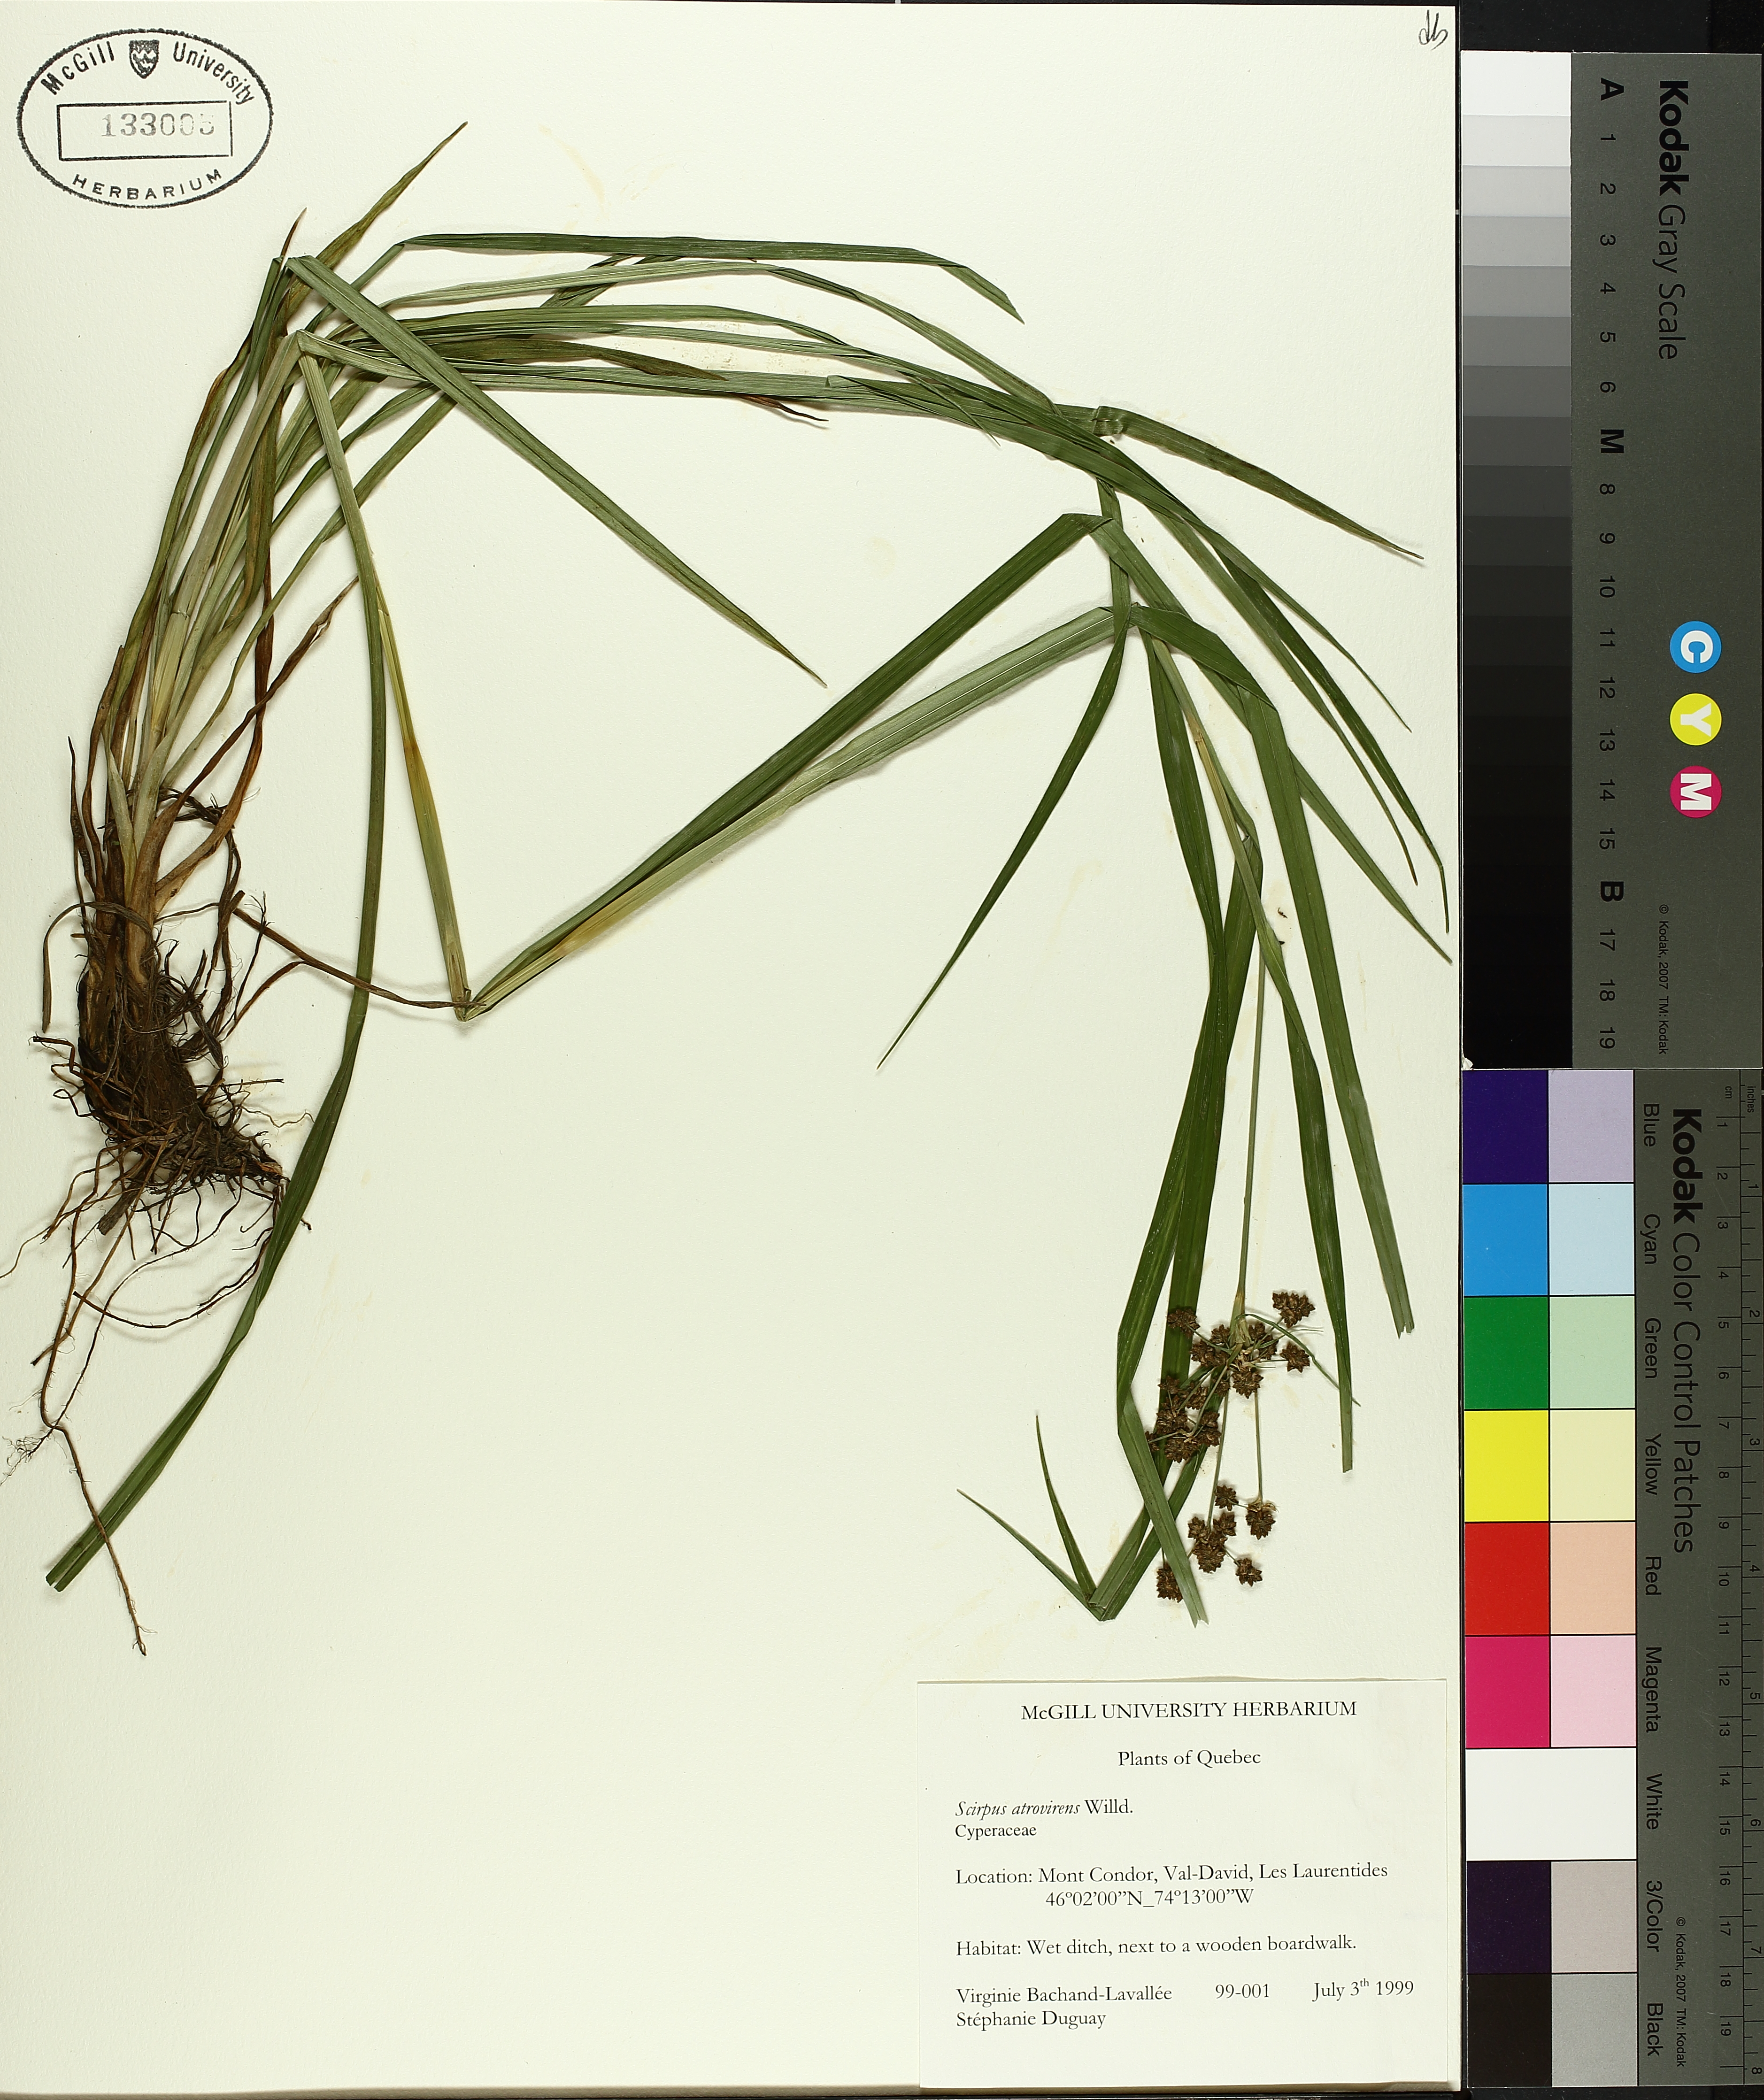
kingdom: Plantae
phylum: Tracheophyta
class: Liliopsida
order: Poales
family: Cyperaceae
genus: Scirpus
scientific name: Scirpus atrovirens
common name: Black bulrush
